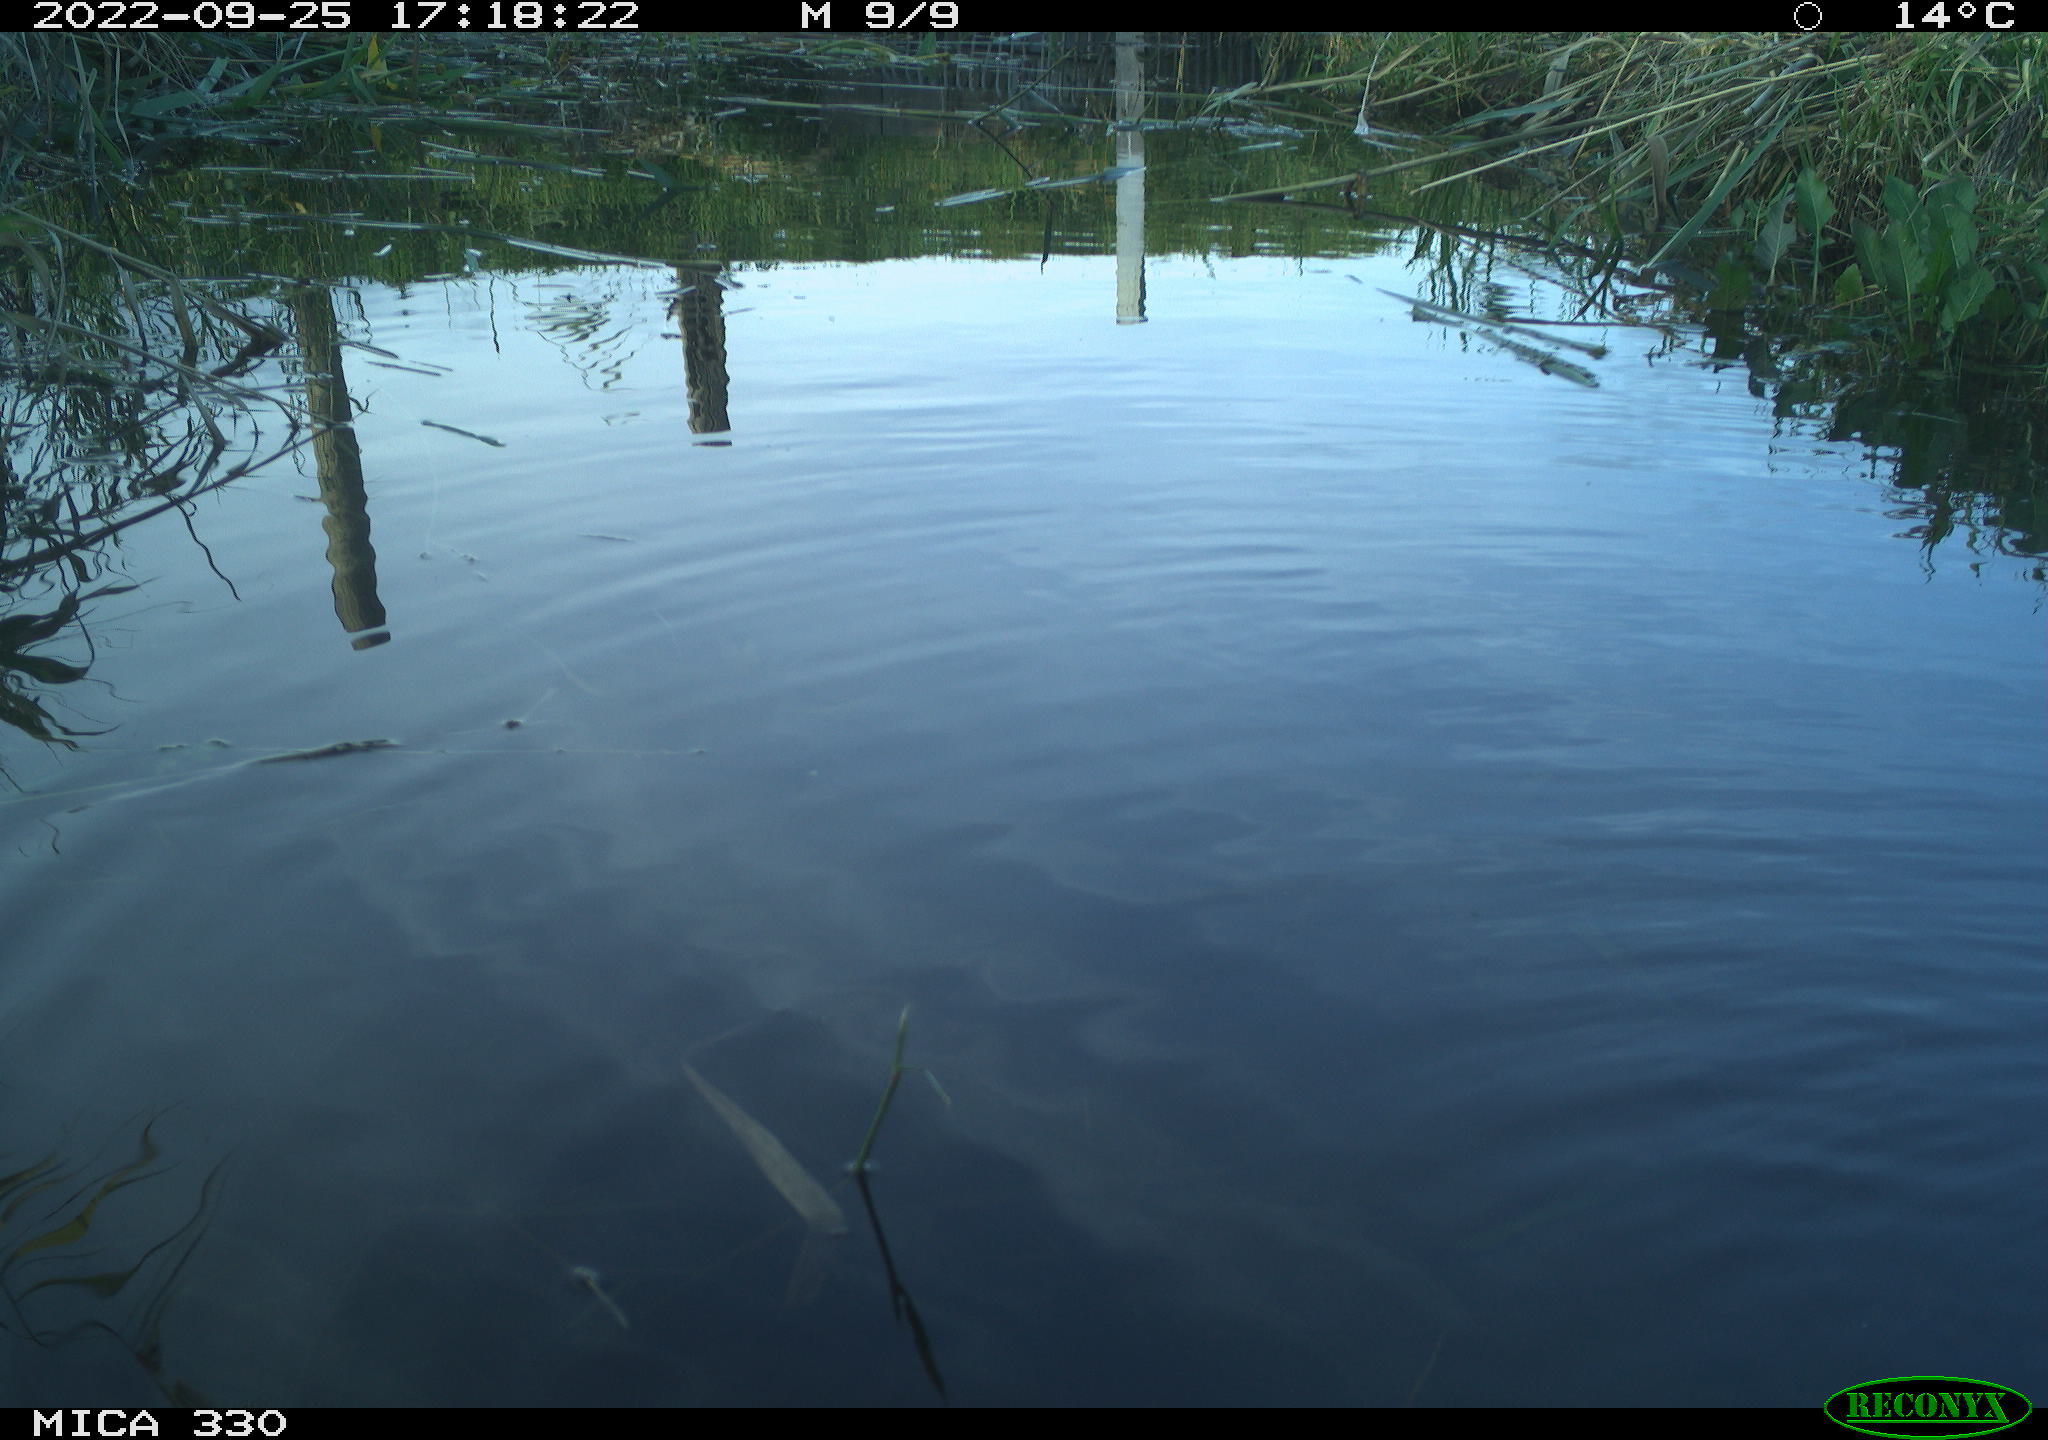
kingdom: Animalia
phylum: Chordata
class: Aves
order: Gruiformes
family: Rallidae
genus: Gallinula
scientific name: Gallinula chloropus
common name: Common moorhen
